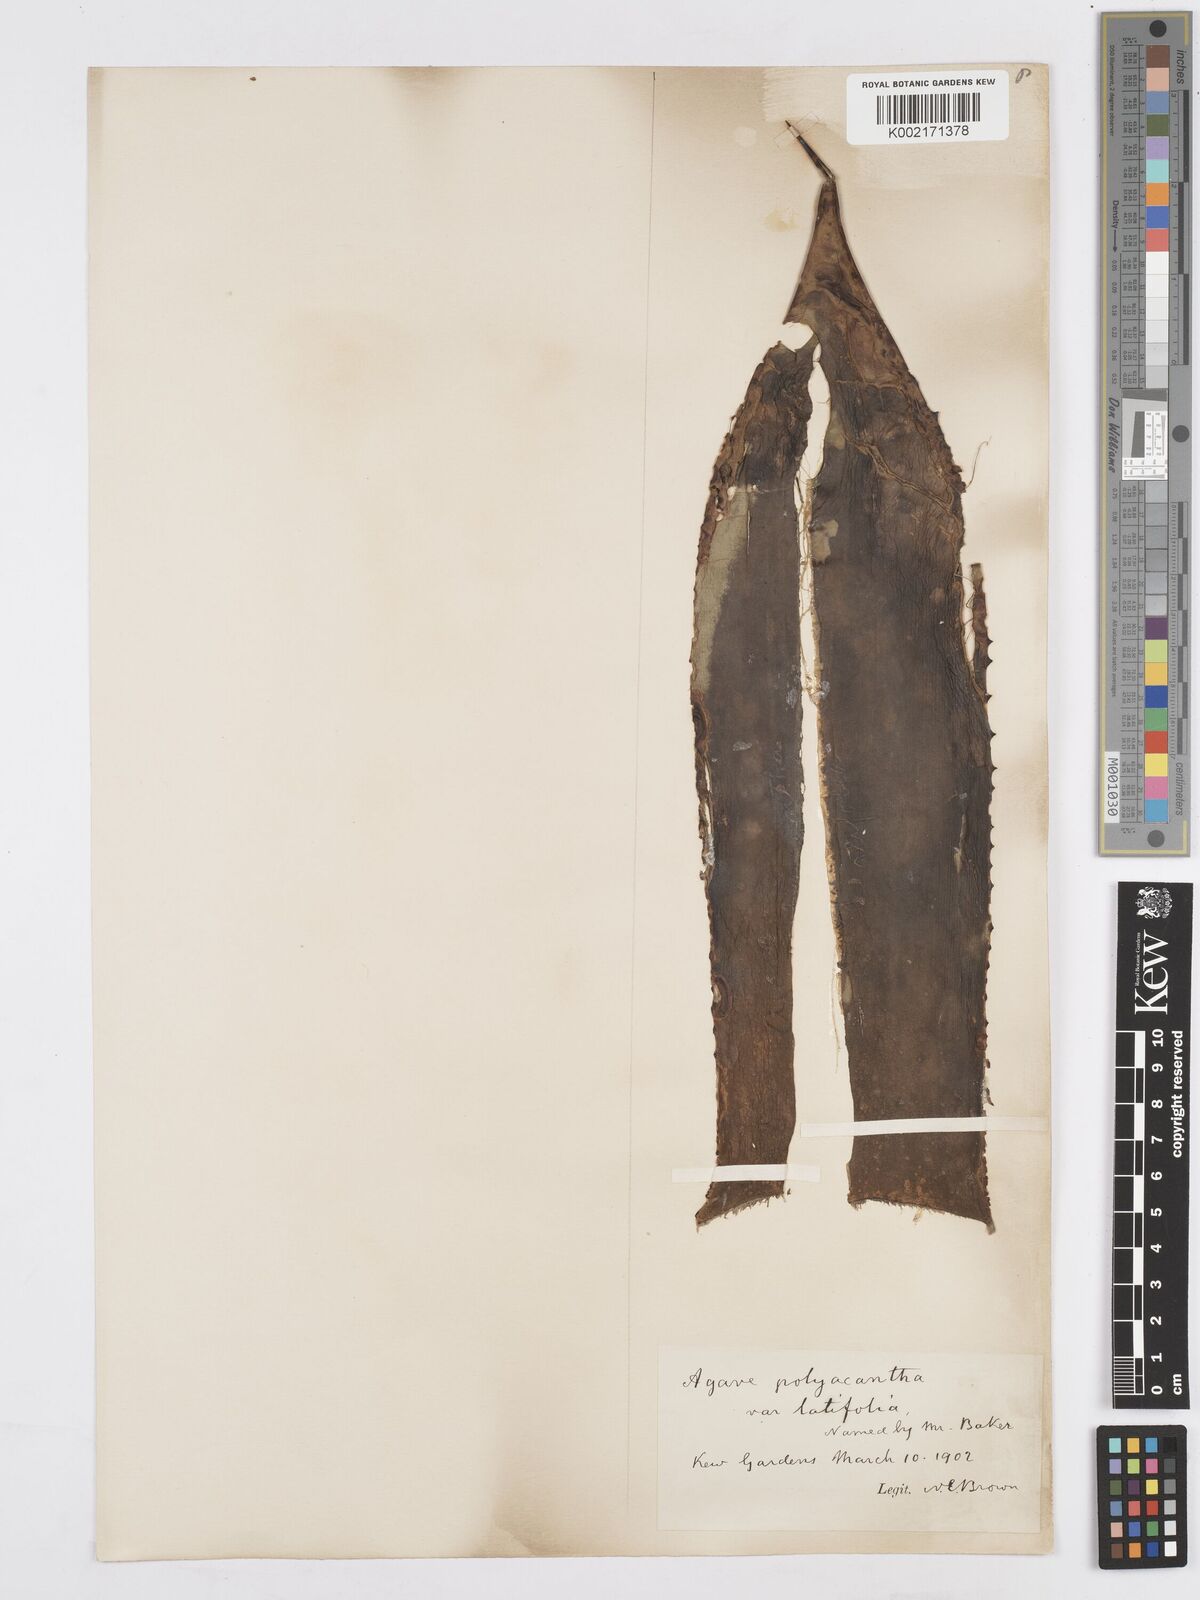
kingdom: Plantae
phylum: Tracheophyta
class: Liliopsida
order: Asparagales
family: Asparagaceae
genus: Agave
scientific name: Agave polyacantha
